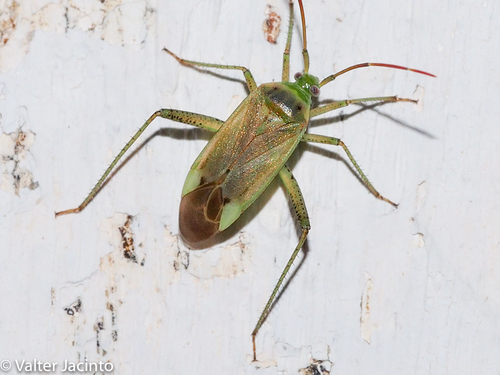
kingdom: Animalia
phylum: Arthropoda
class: Insecta
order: Hemiptera
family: Miridae
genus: Adelphocoris
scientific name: Adelphocoris lineolatus
